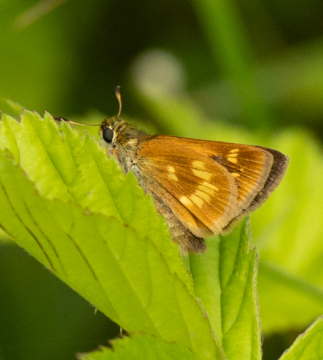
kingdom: Animalia
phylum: Arthropoda
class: Insecta
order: Lepidoptera
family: Hesperiidae
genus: Polites
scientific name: Polites
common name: Long Dash Skipper
